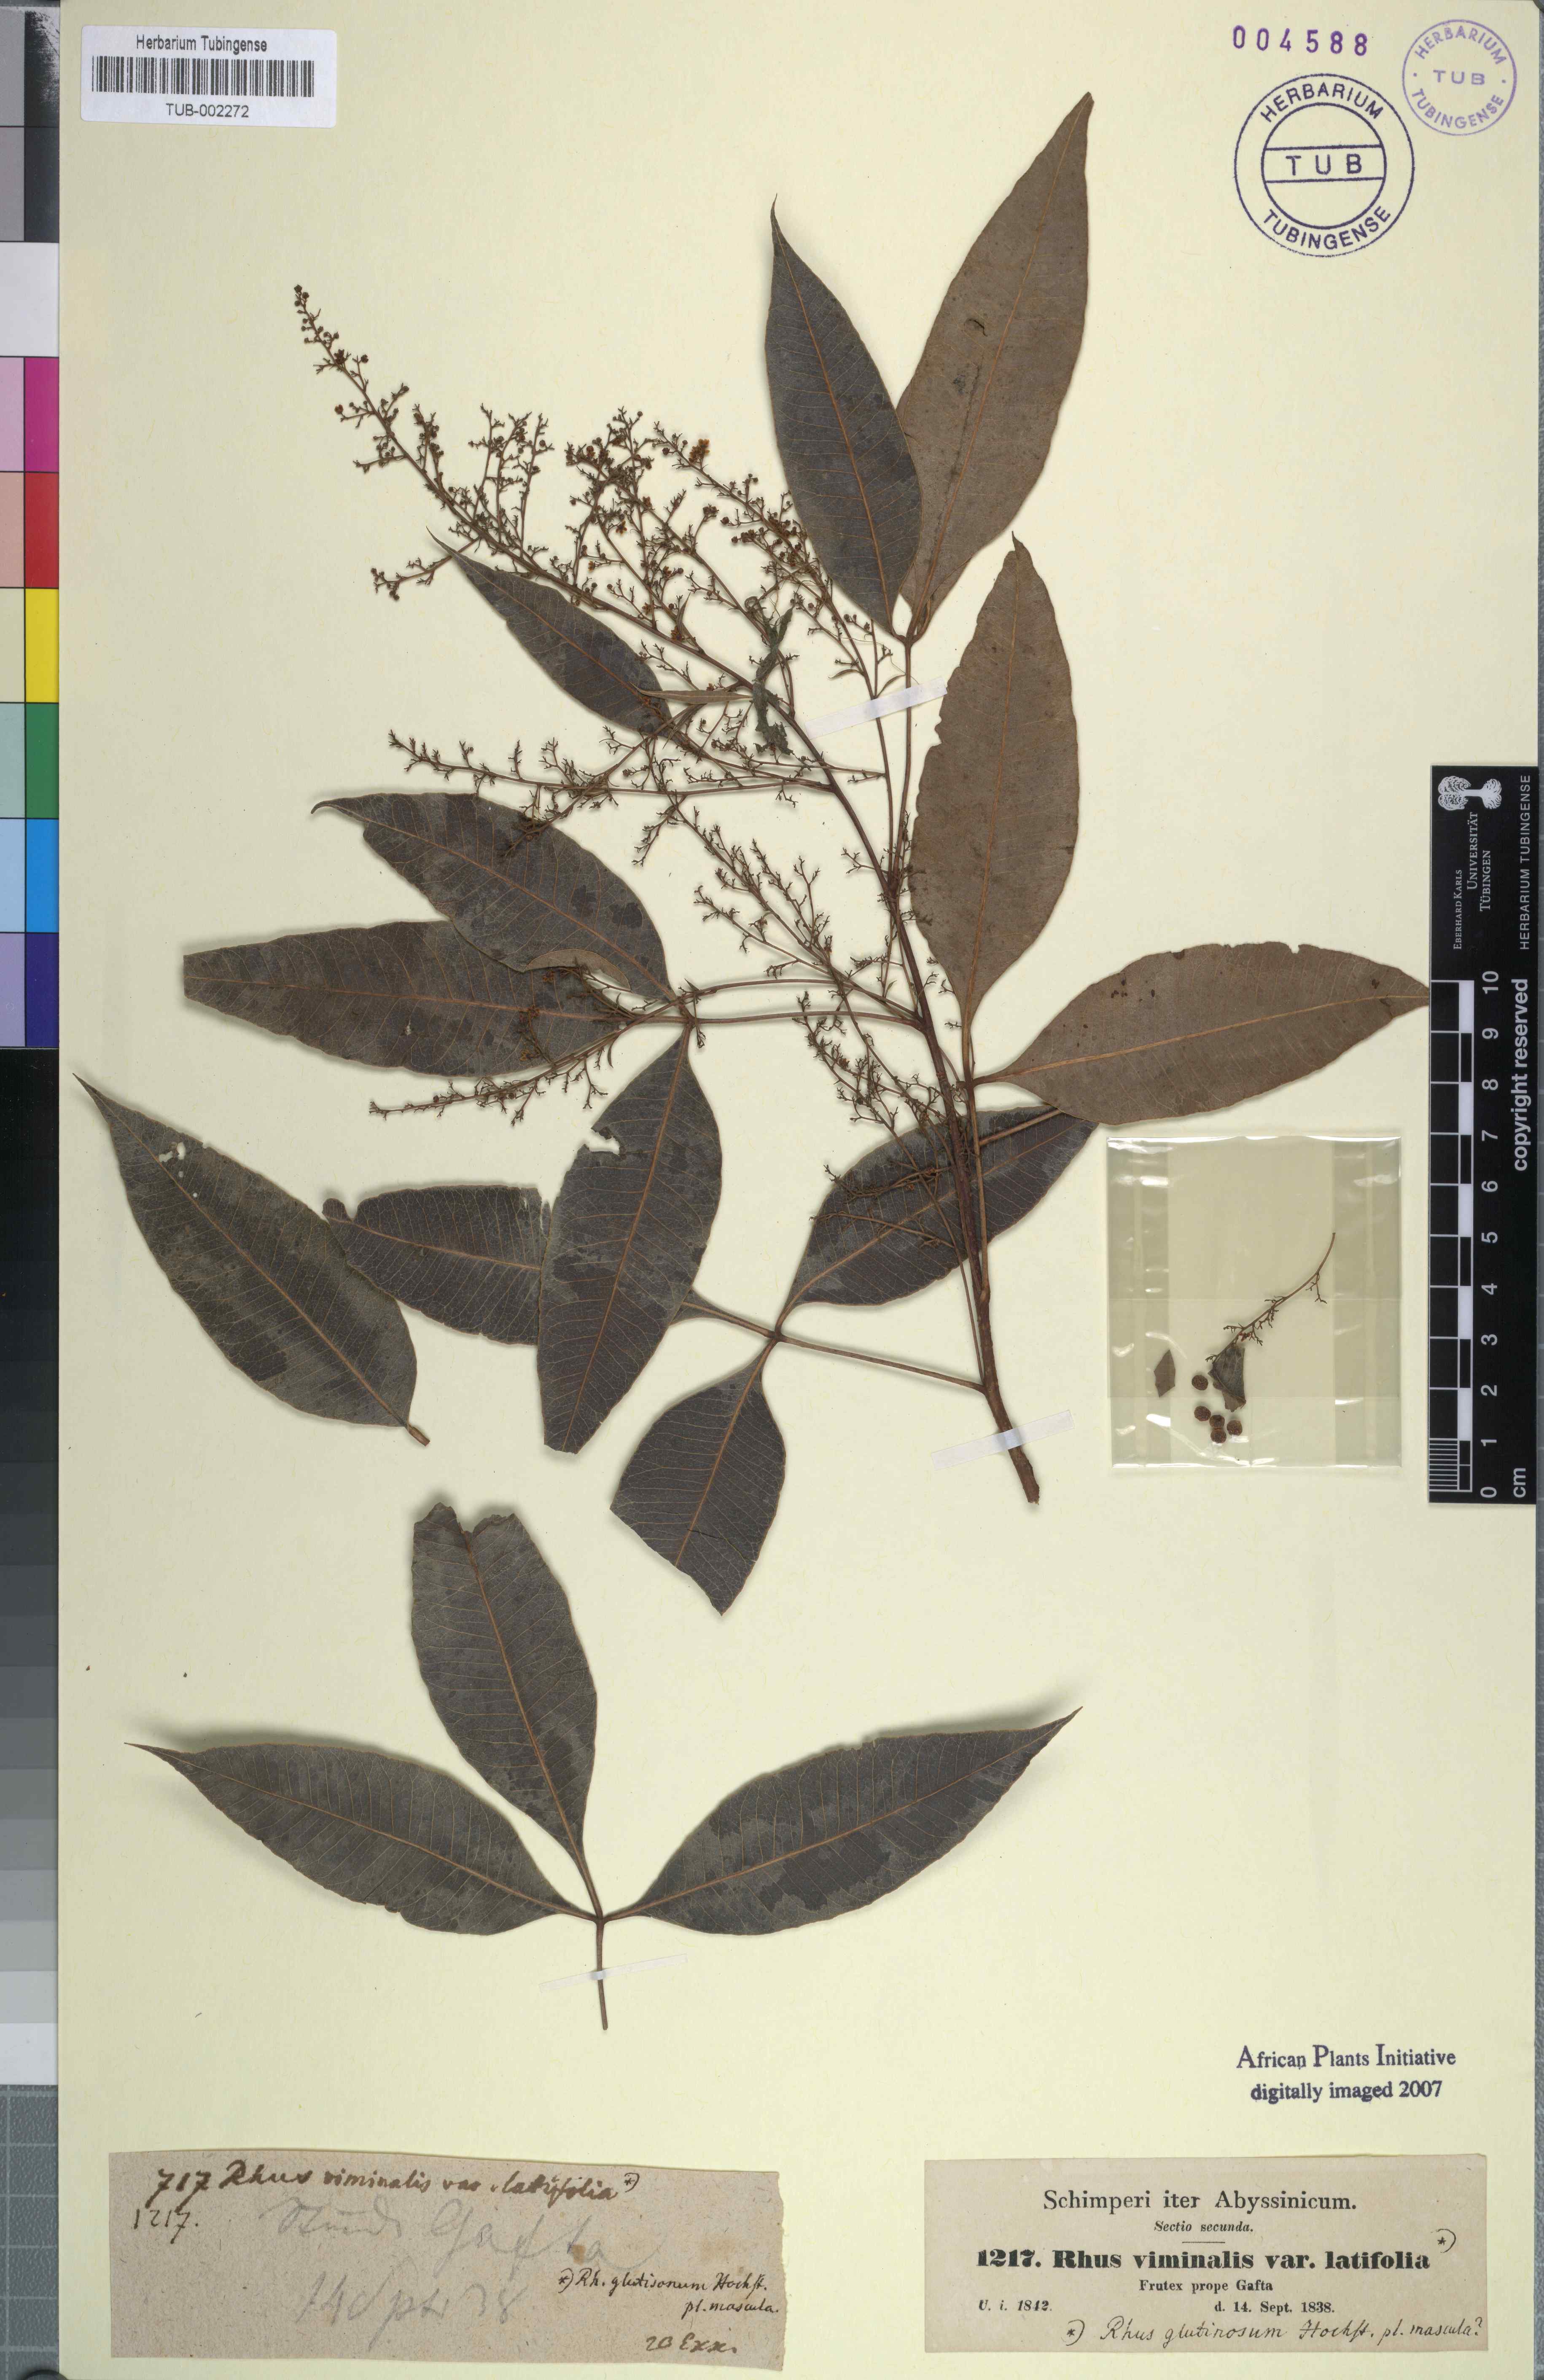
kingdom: Plantae
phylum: Tracheophyta
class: Magnoliopsida
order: Sapindales
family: Anacardiaceae
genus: Searsia
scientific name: Searsia laevigata
